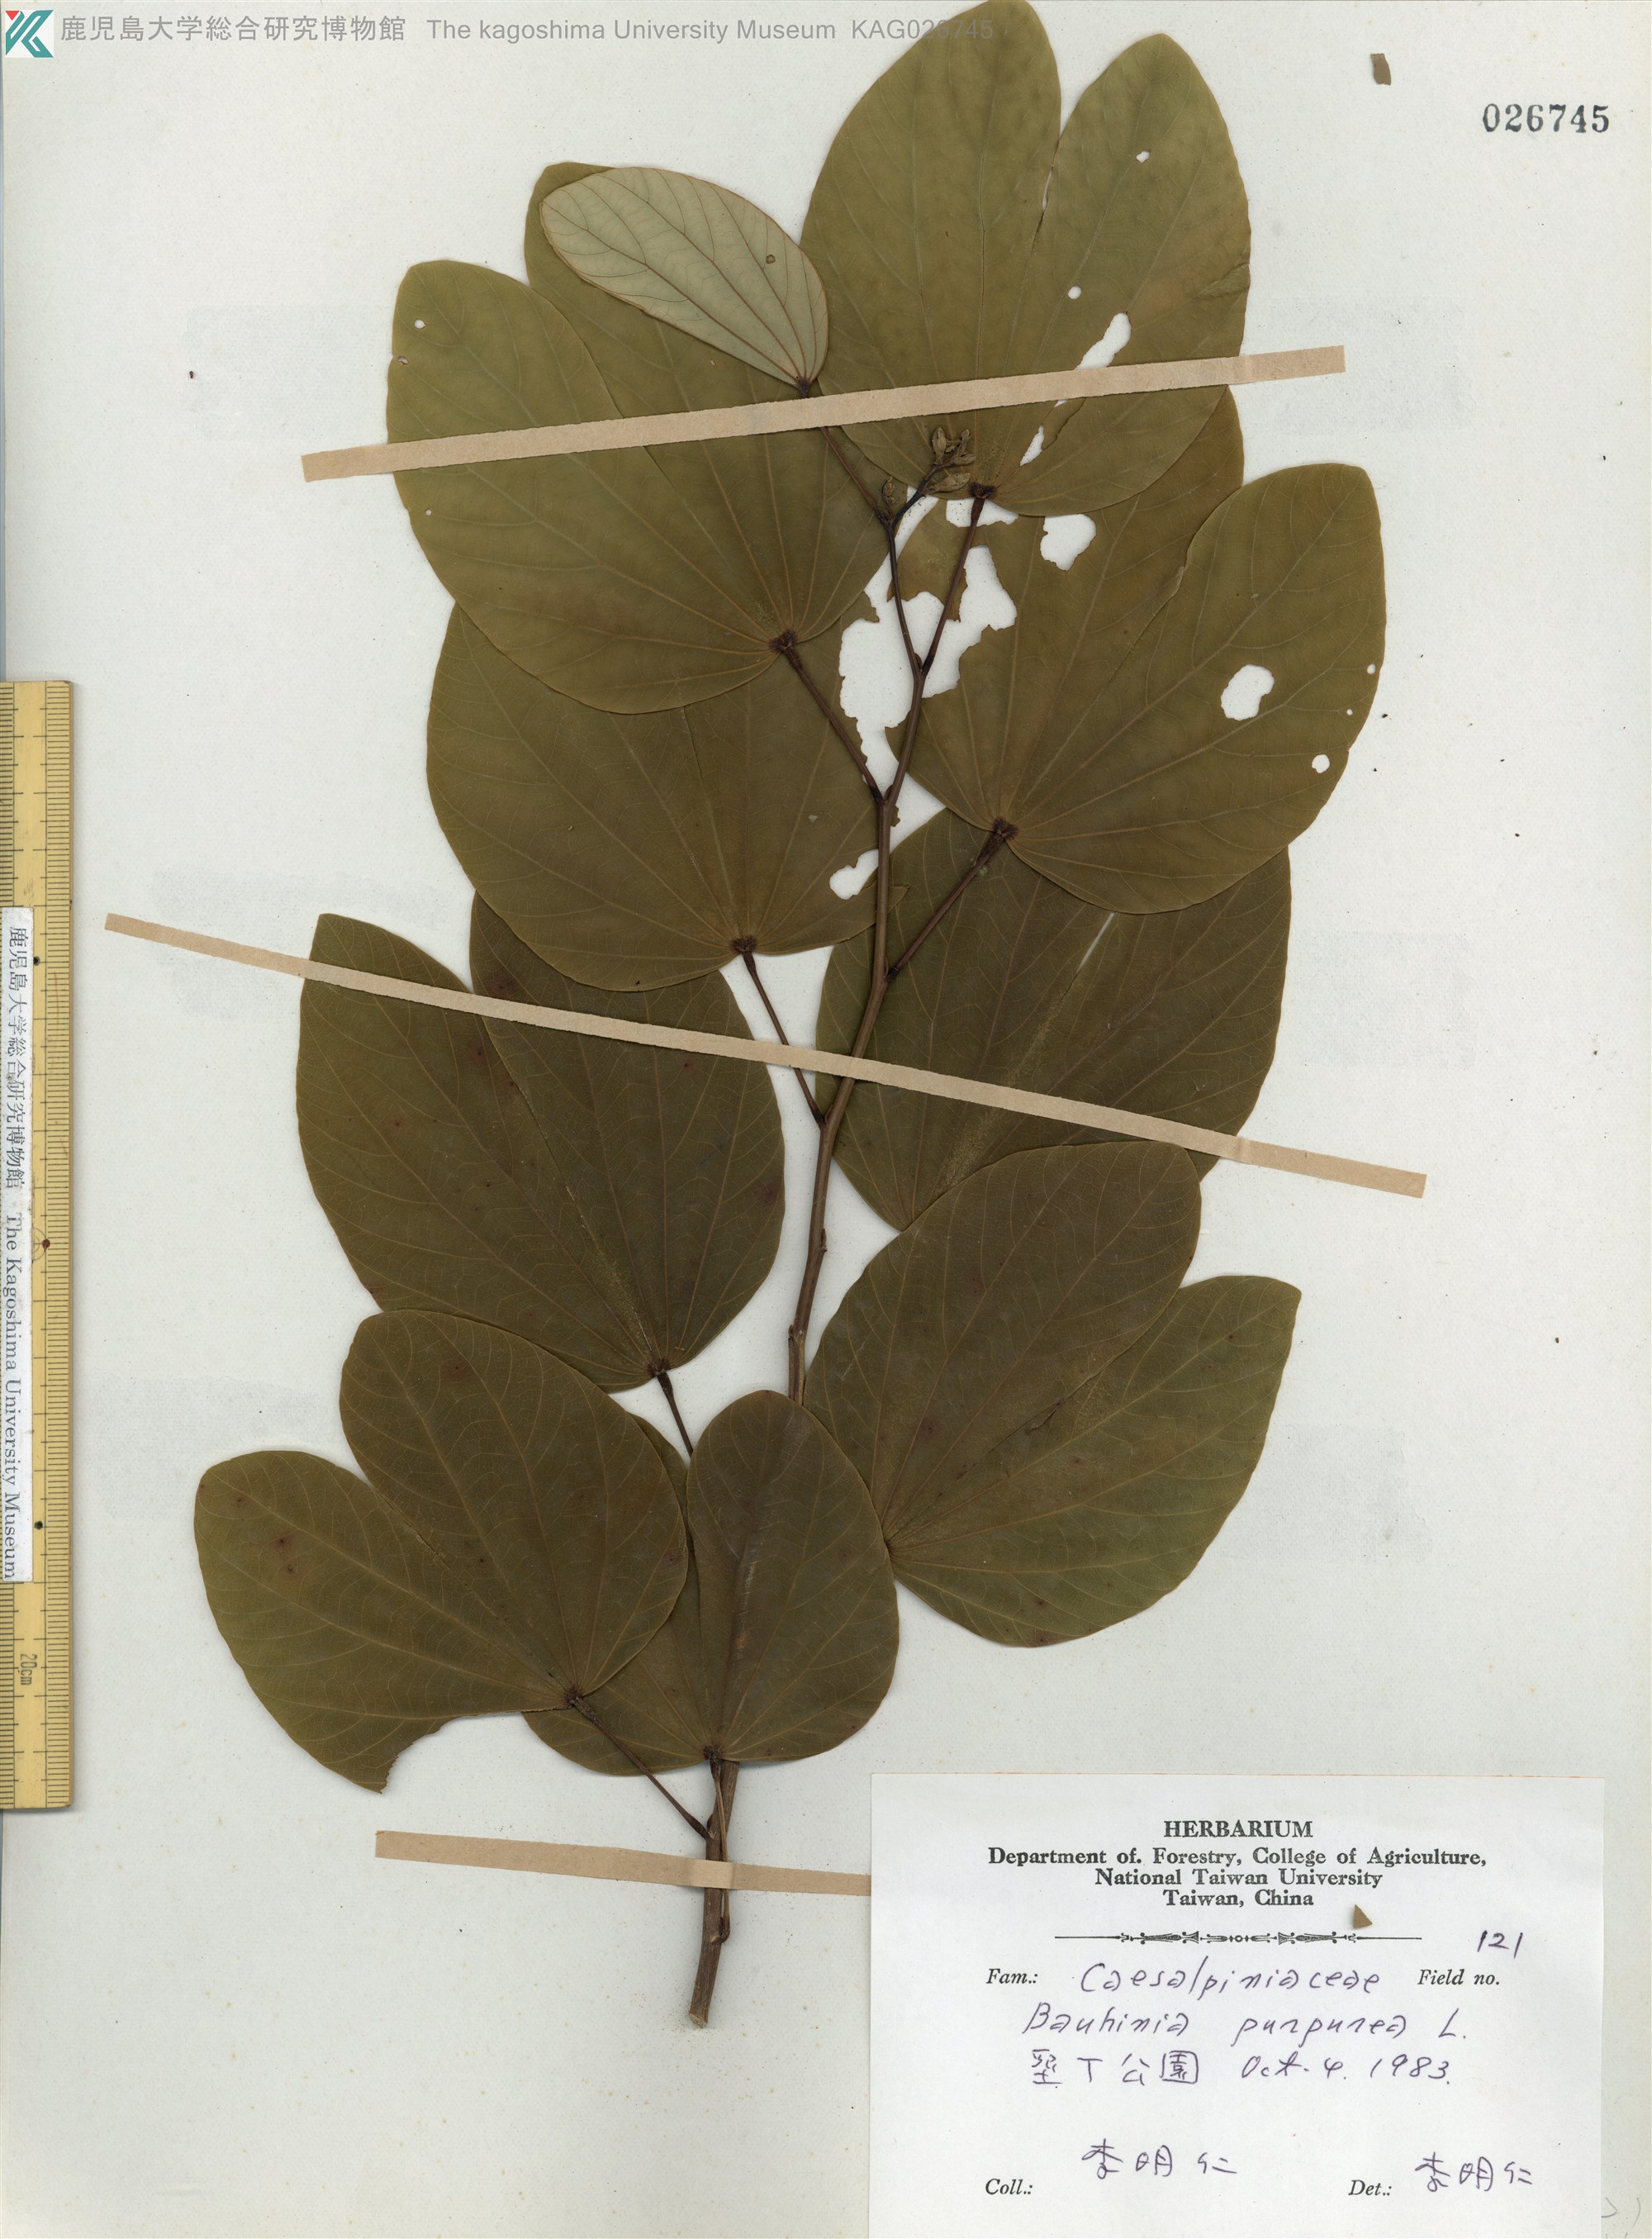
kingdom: Plantae
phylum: Tracheophyta
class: Magnoliopsida
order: Fabales
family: Fabaceae
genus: Bauhinia
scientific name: Bauhinia purpurea
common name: Butterfly-tree
